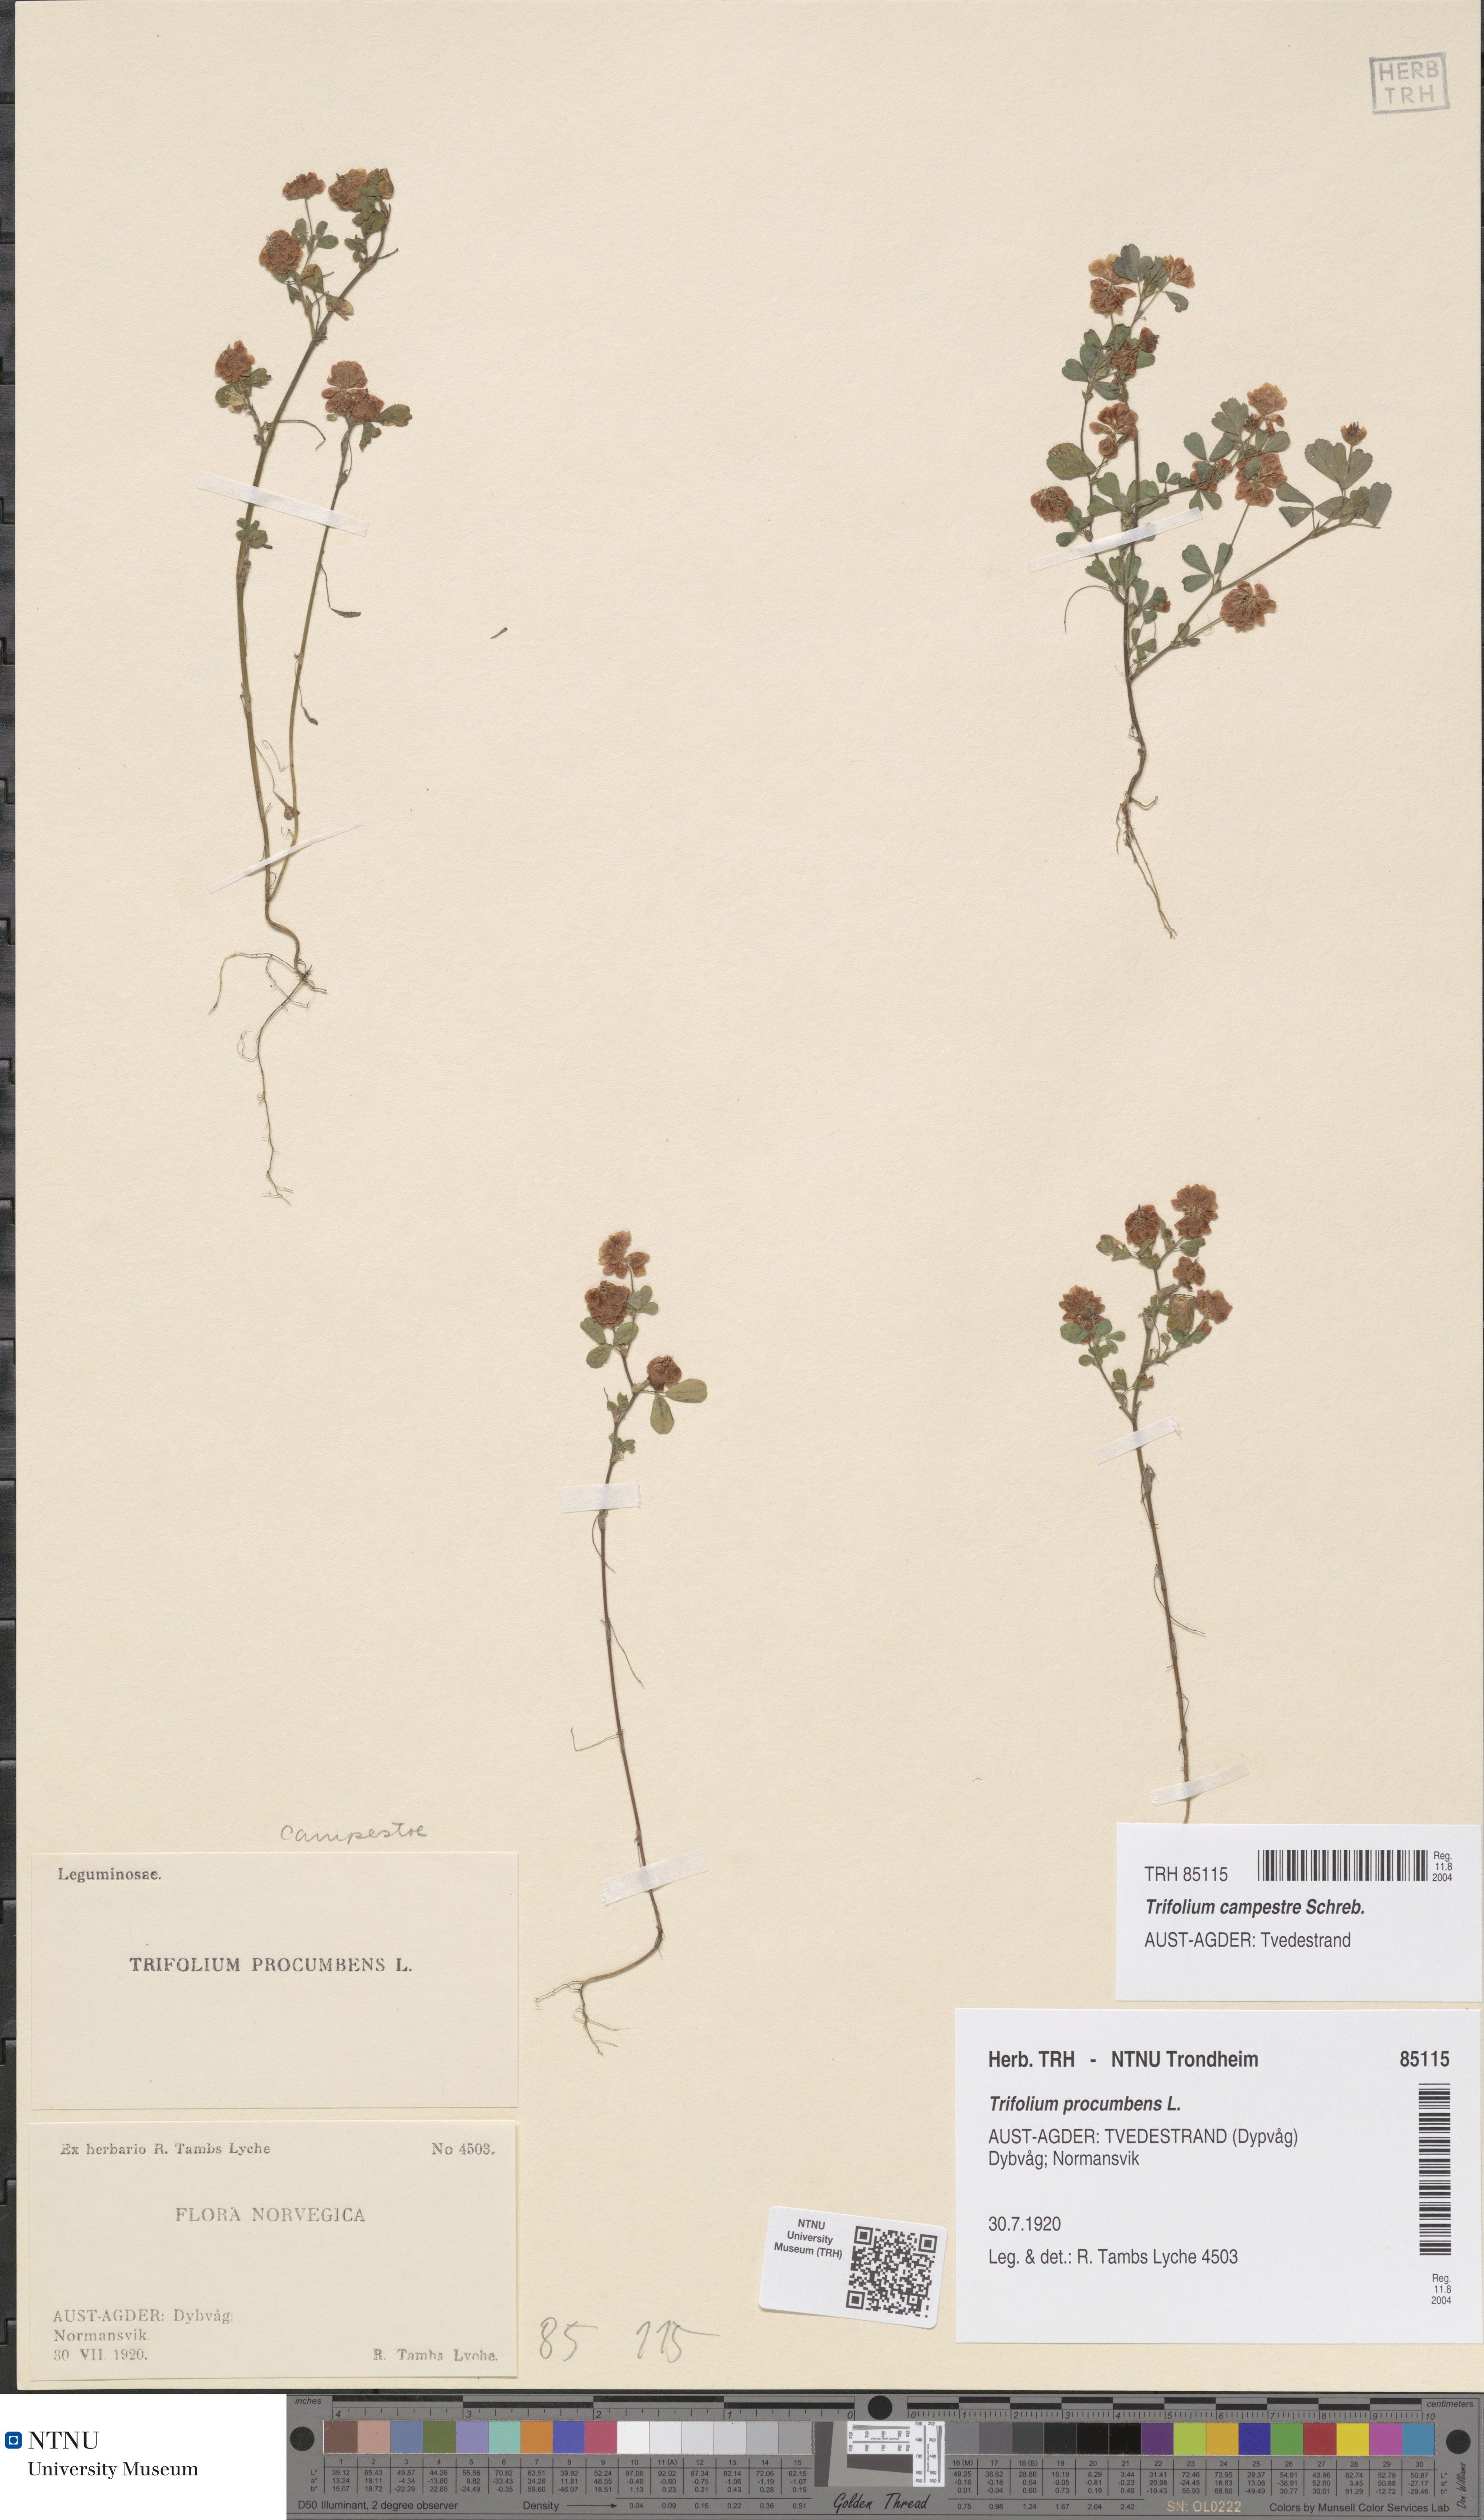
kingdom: Plantae
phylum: Tracheophyta
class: Magnoliopsida
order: Fabales
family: Fabaceae
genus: Trifolium
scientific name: Trifolium campestre
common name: Field clover
